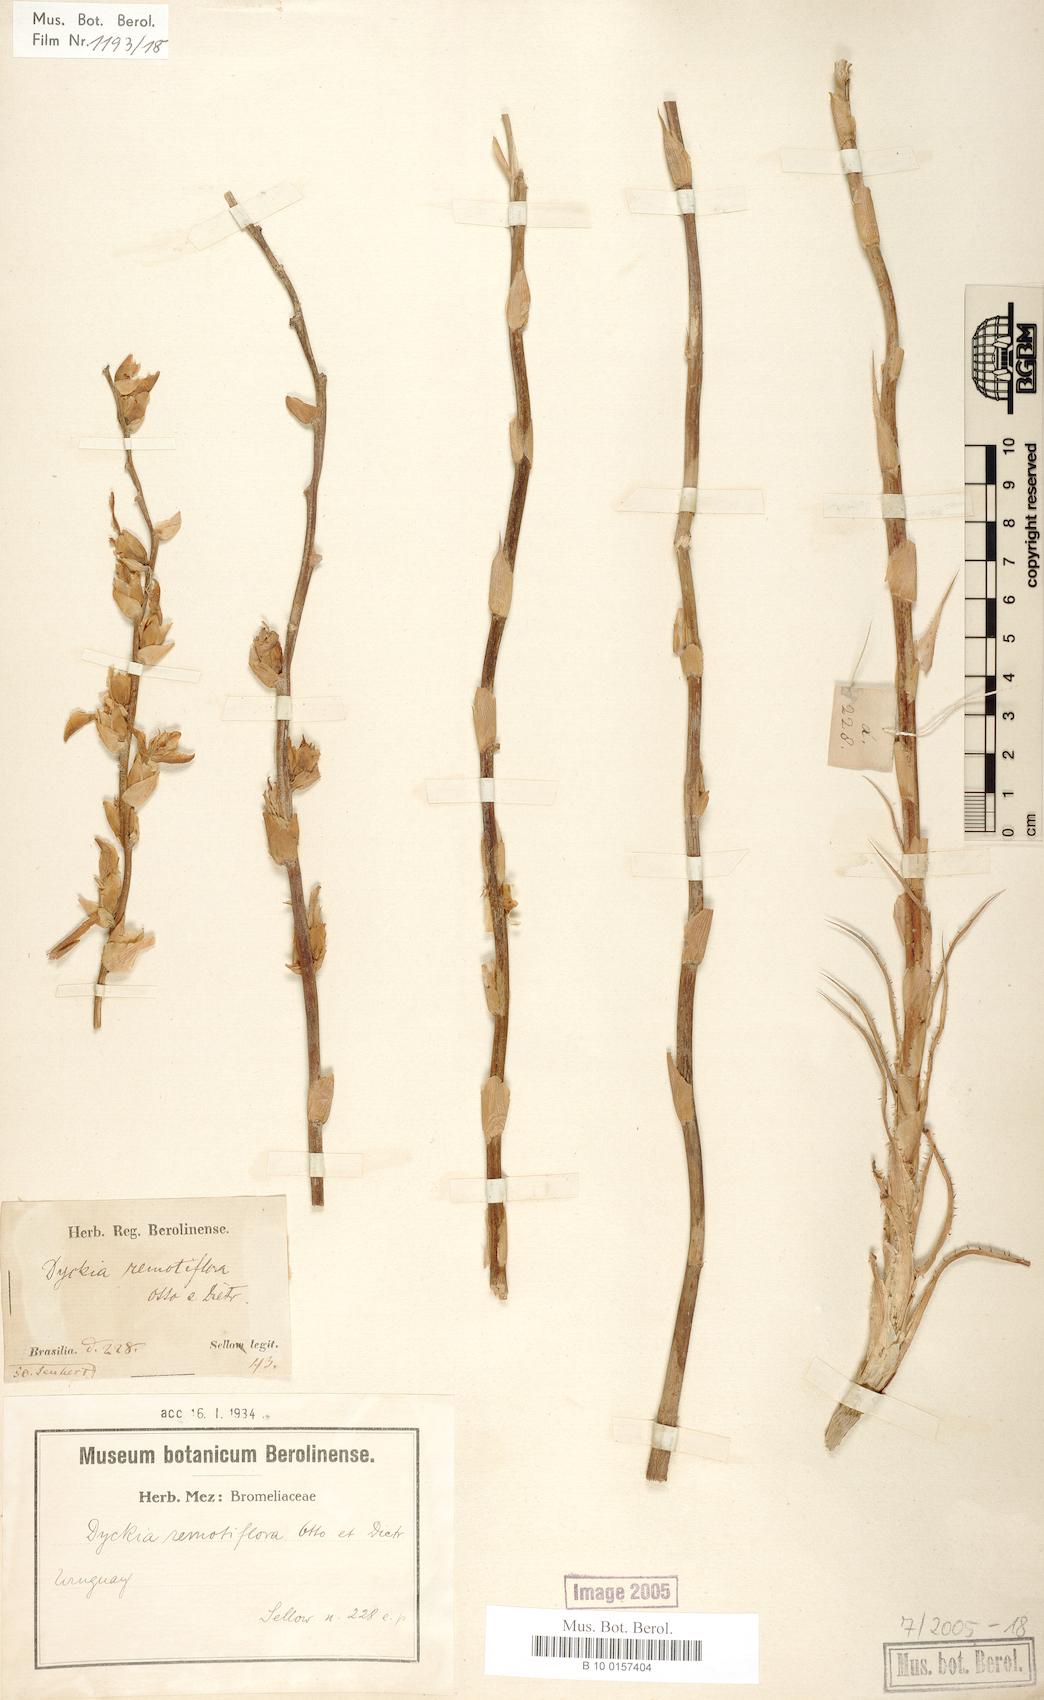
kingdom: Plantae
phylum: Tracheophyta
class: Liliopsida
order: Poales
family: Bromeliaceae
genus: Dyckia
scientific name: Dyckia remotiflora
